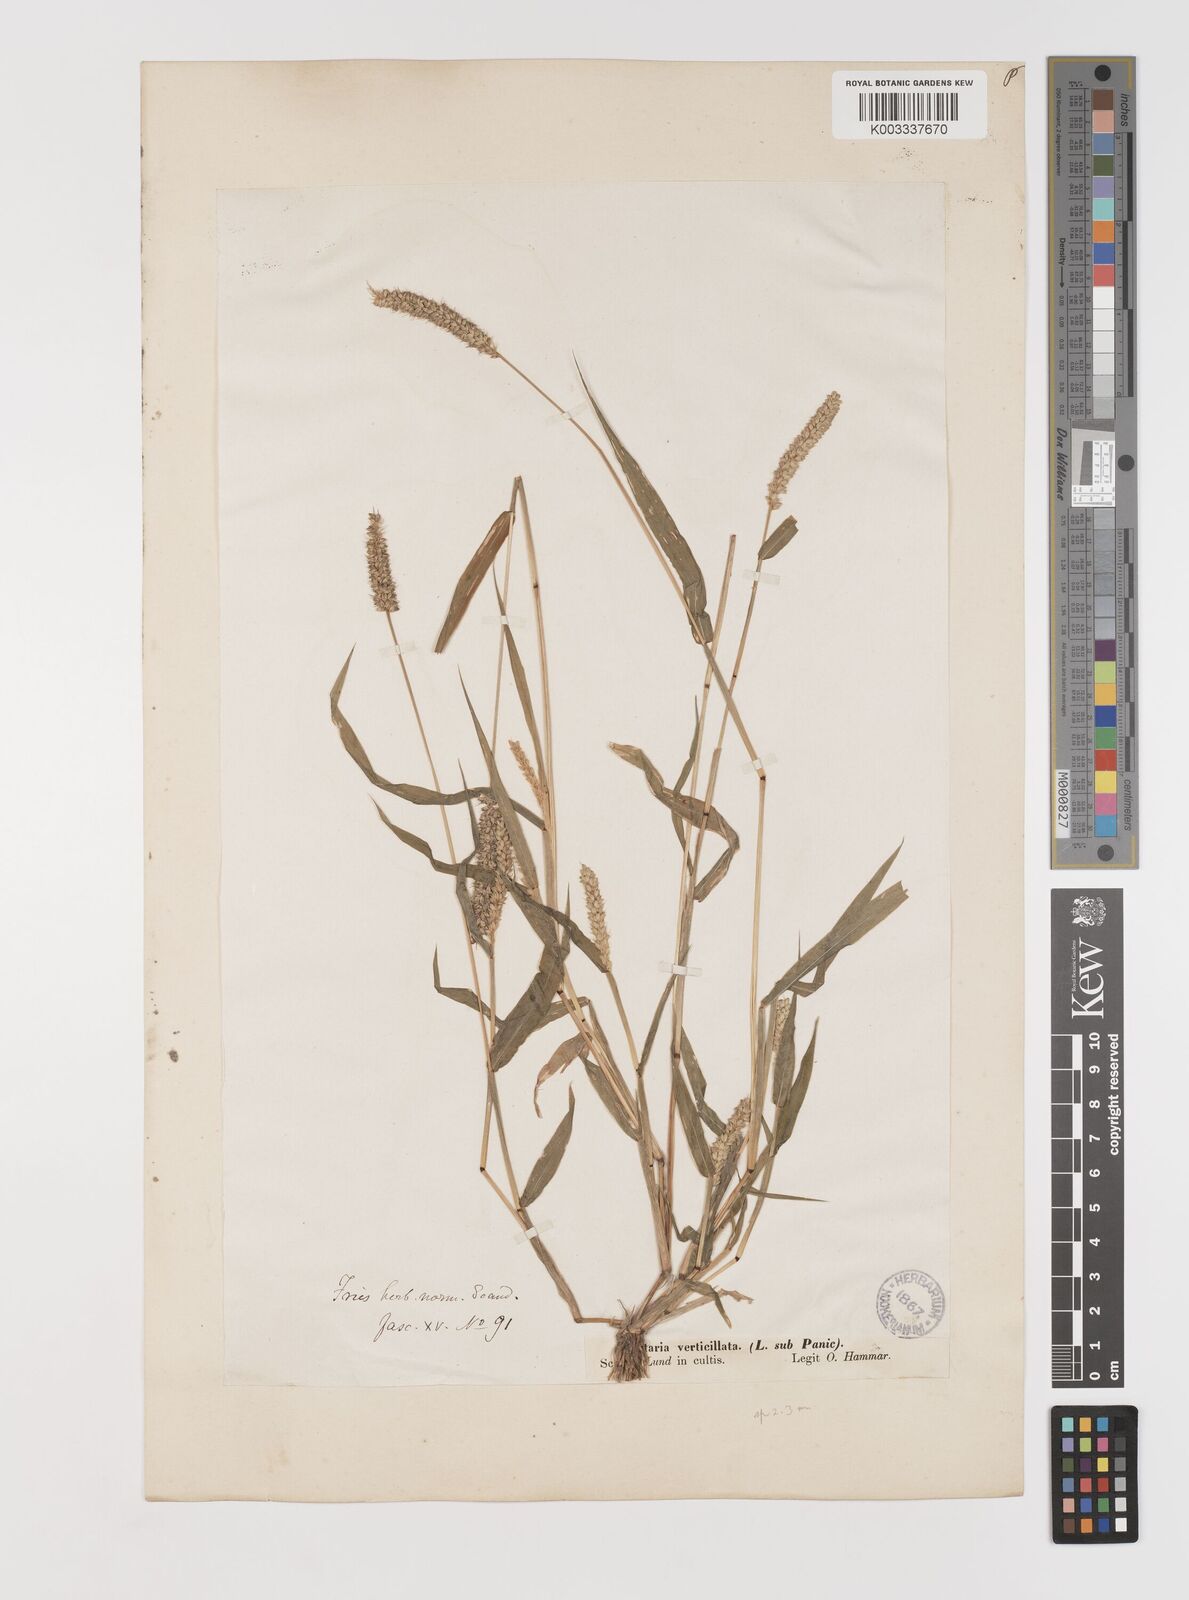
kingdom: Plantae
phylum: Tracheophyta
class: Liliopsida
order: Poales
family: Poaceae
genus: Setaria
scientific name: Setaria verticillata
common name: Hooked bristlegrass
